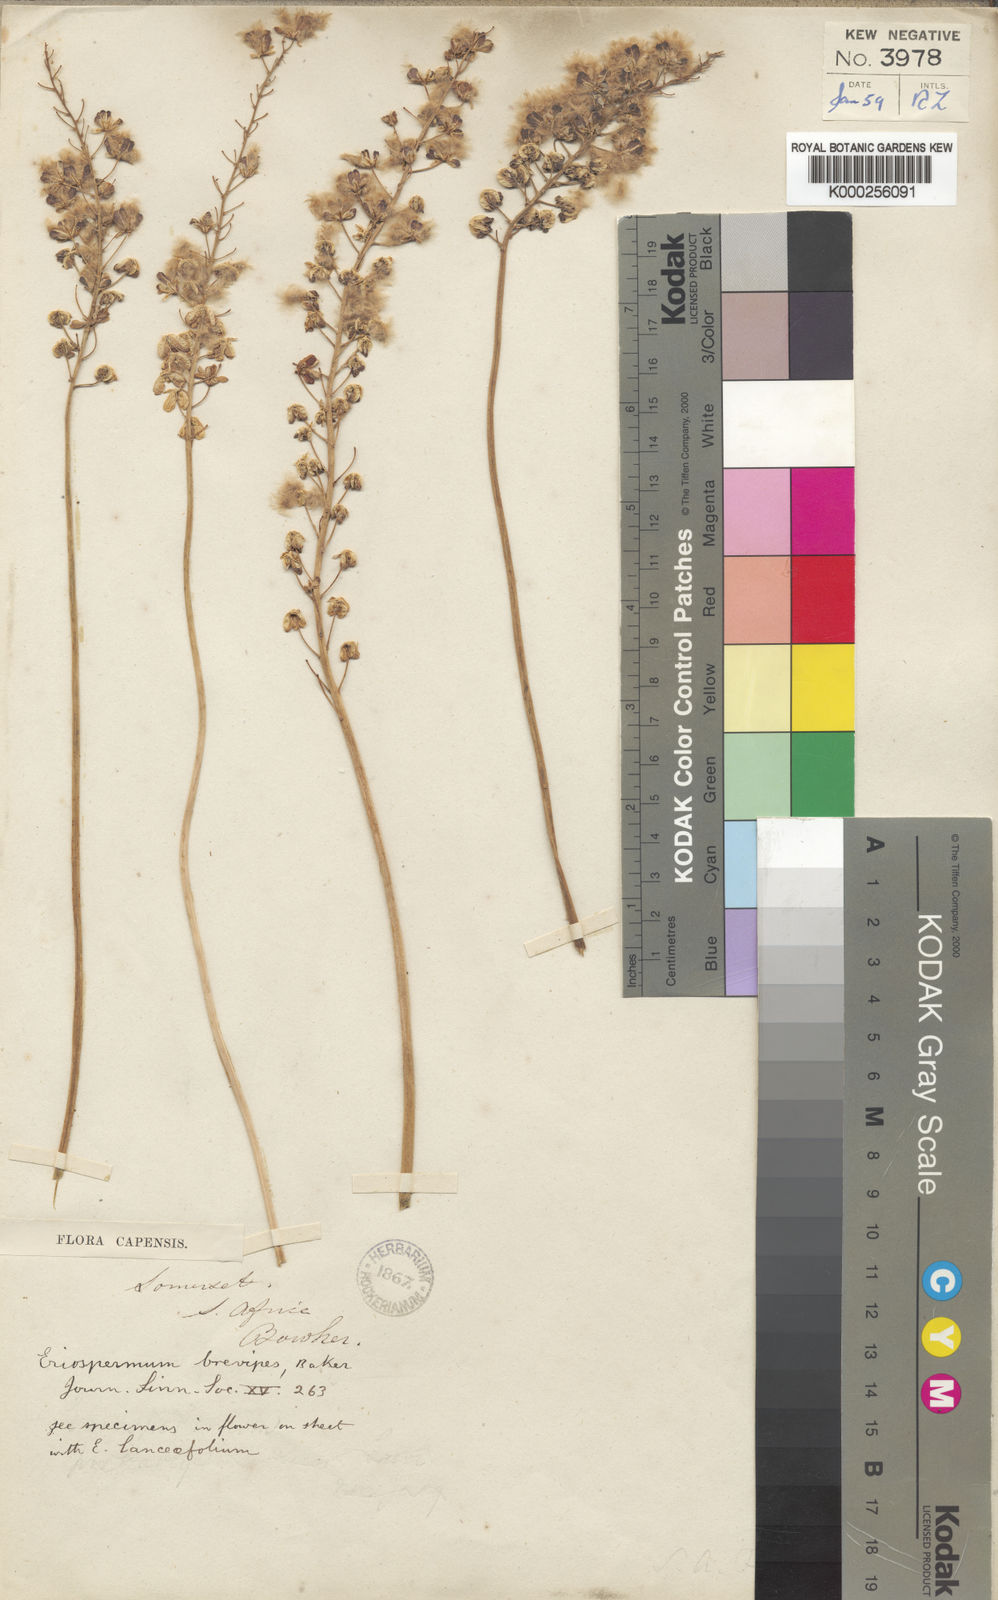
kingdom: Plantae
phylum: Tracheophyta
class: Liliopsida
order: Asparagales
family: Asparagaceae
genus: Eriospermum
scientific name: Eriospermum brevipes
